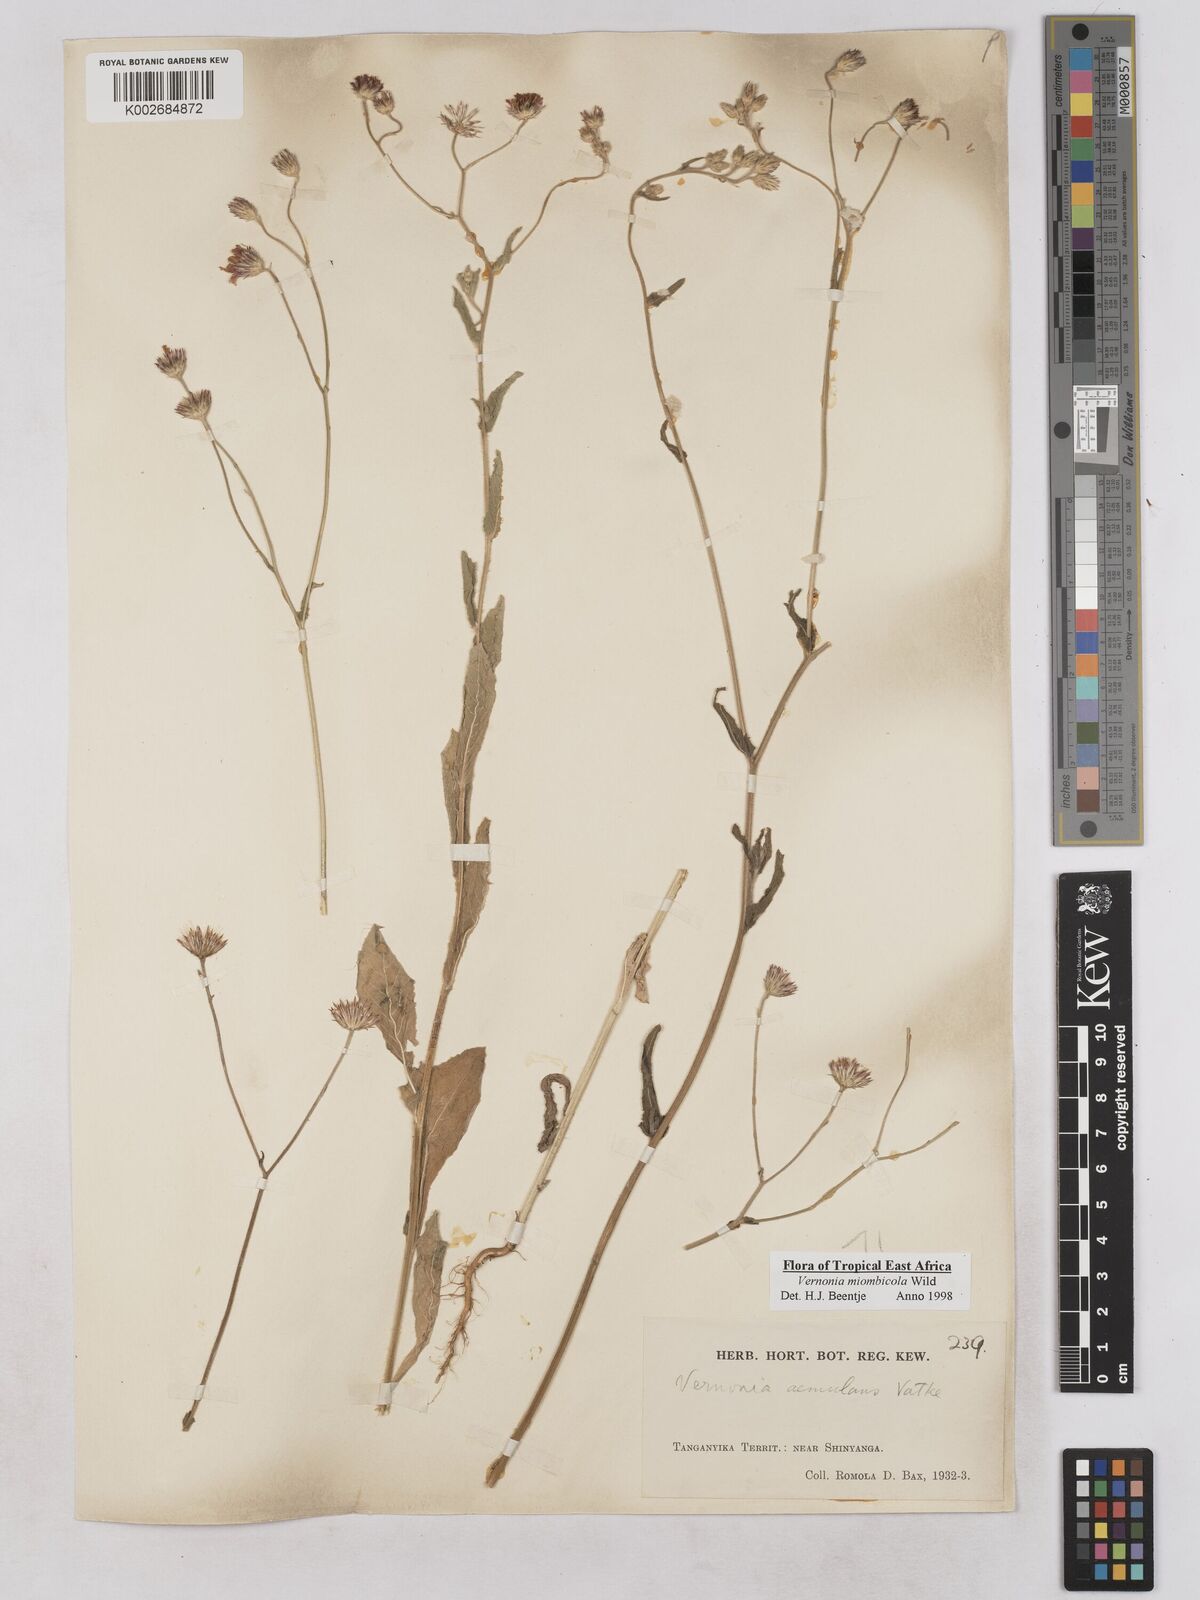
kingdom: Plantae
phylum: Tracheophyta
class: Magnoliopsida
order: Asterales
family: Asteraceae
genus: Vernonia
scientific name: Vernonia miombicola
